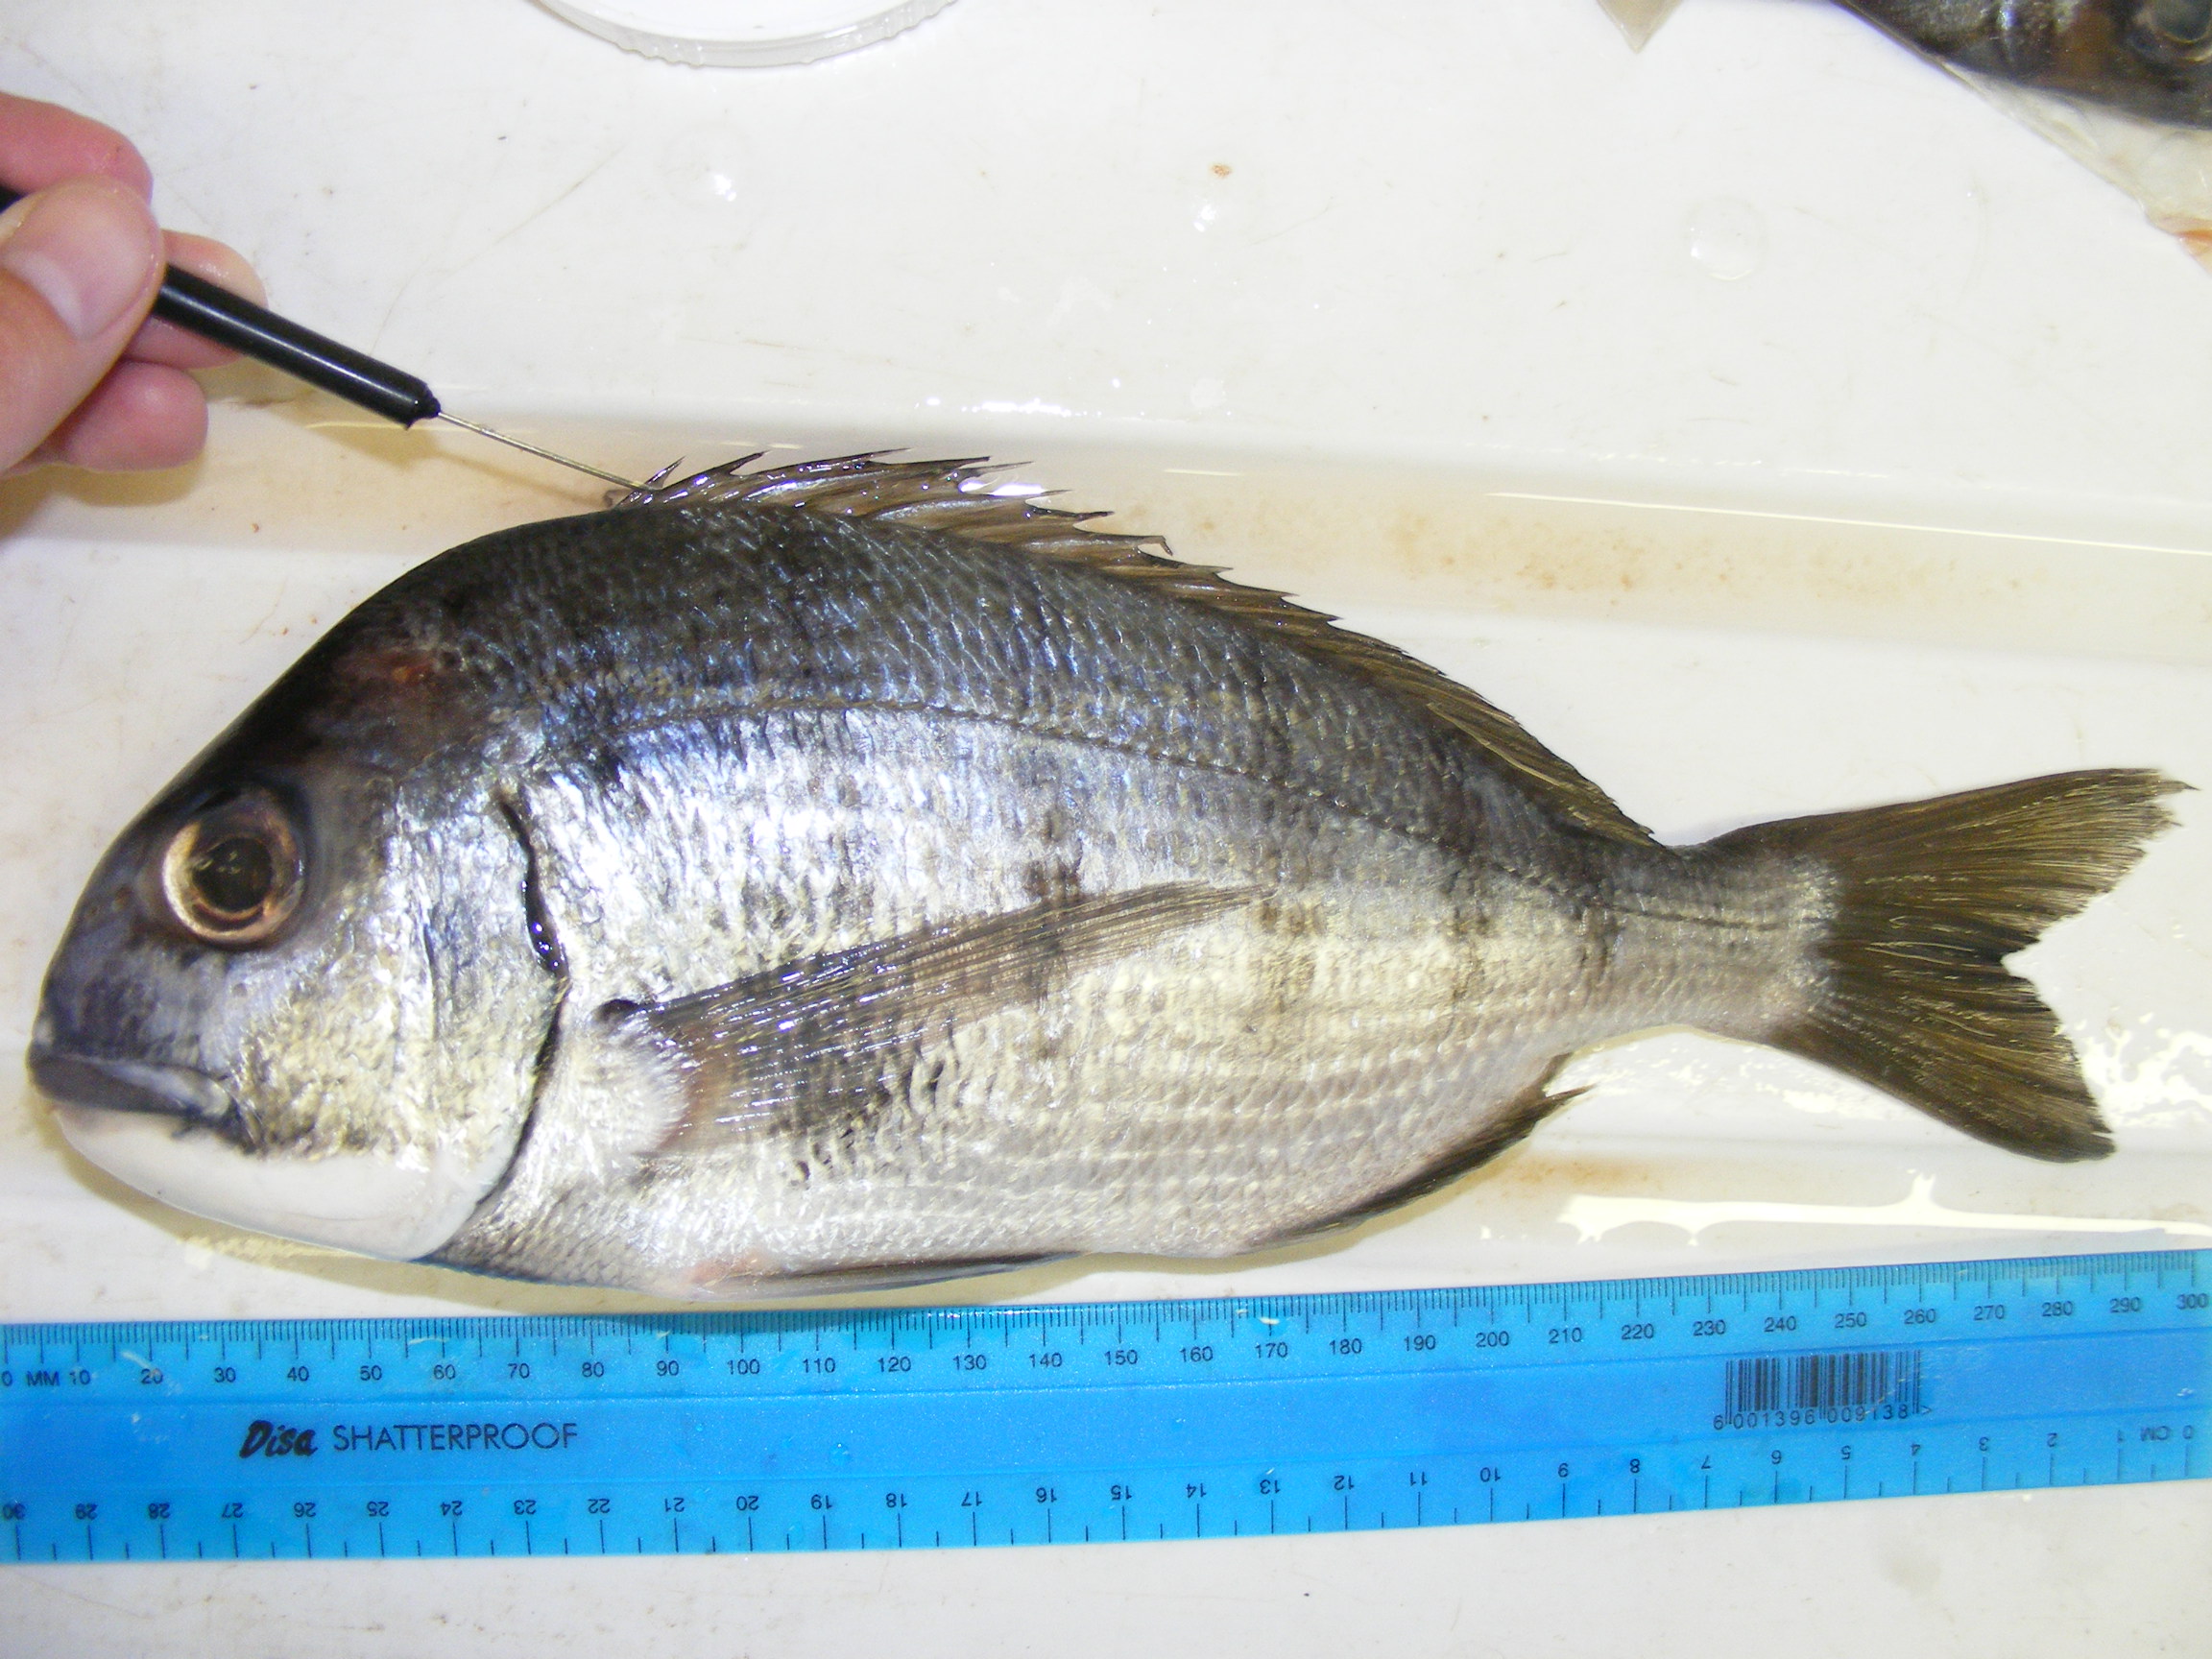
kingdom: Animalia
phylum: Chordata
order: Perciformes
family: Sparidae
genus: Rhabdosargus
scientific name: Rhabdosargus globiceps
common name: White stumpnose
